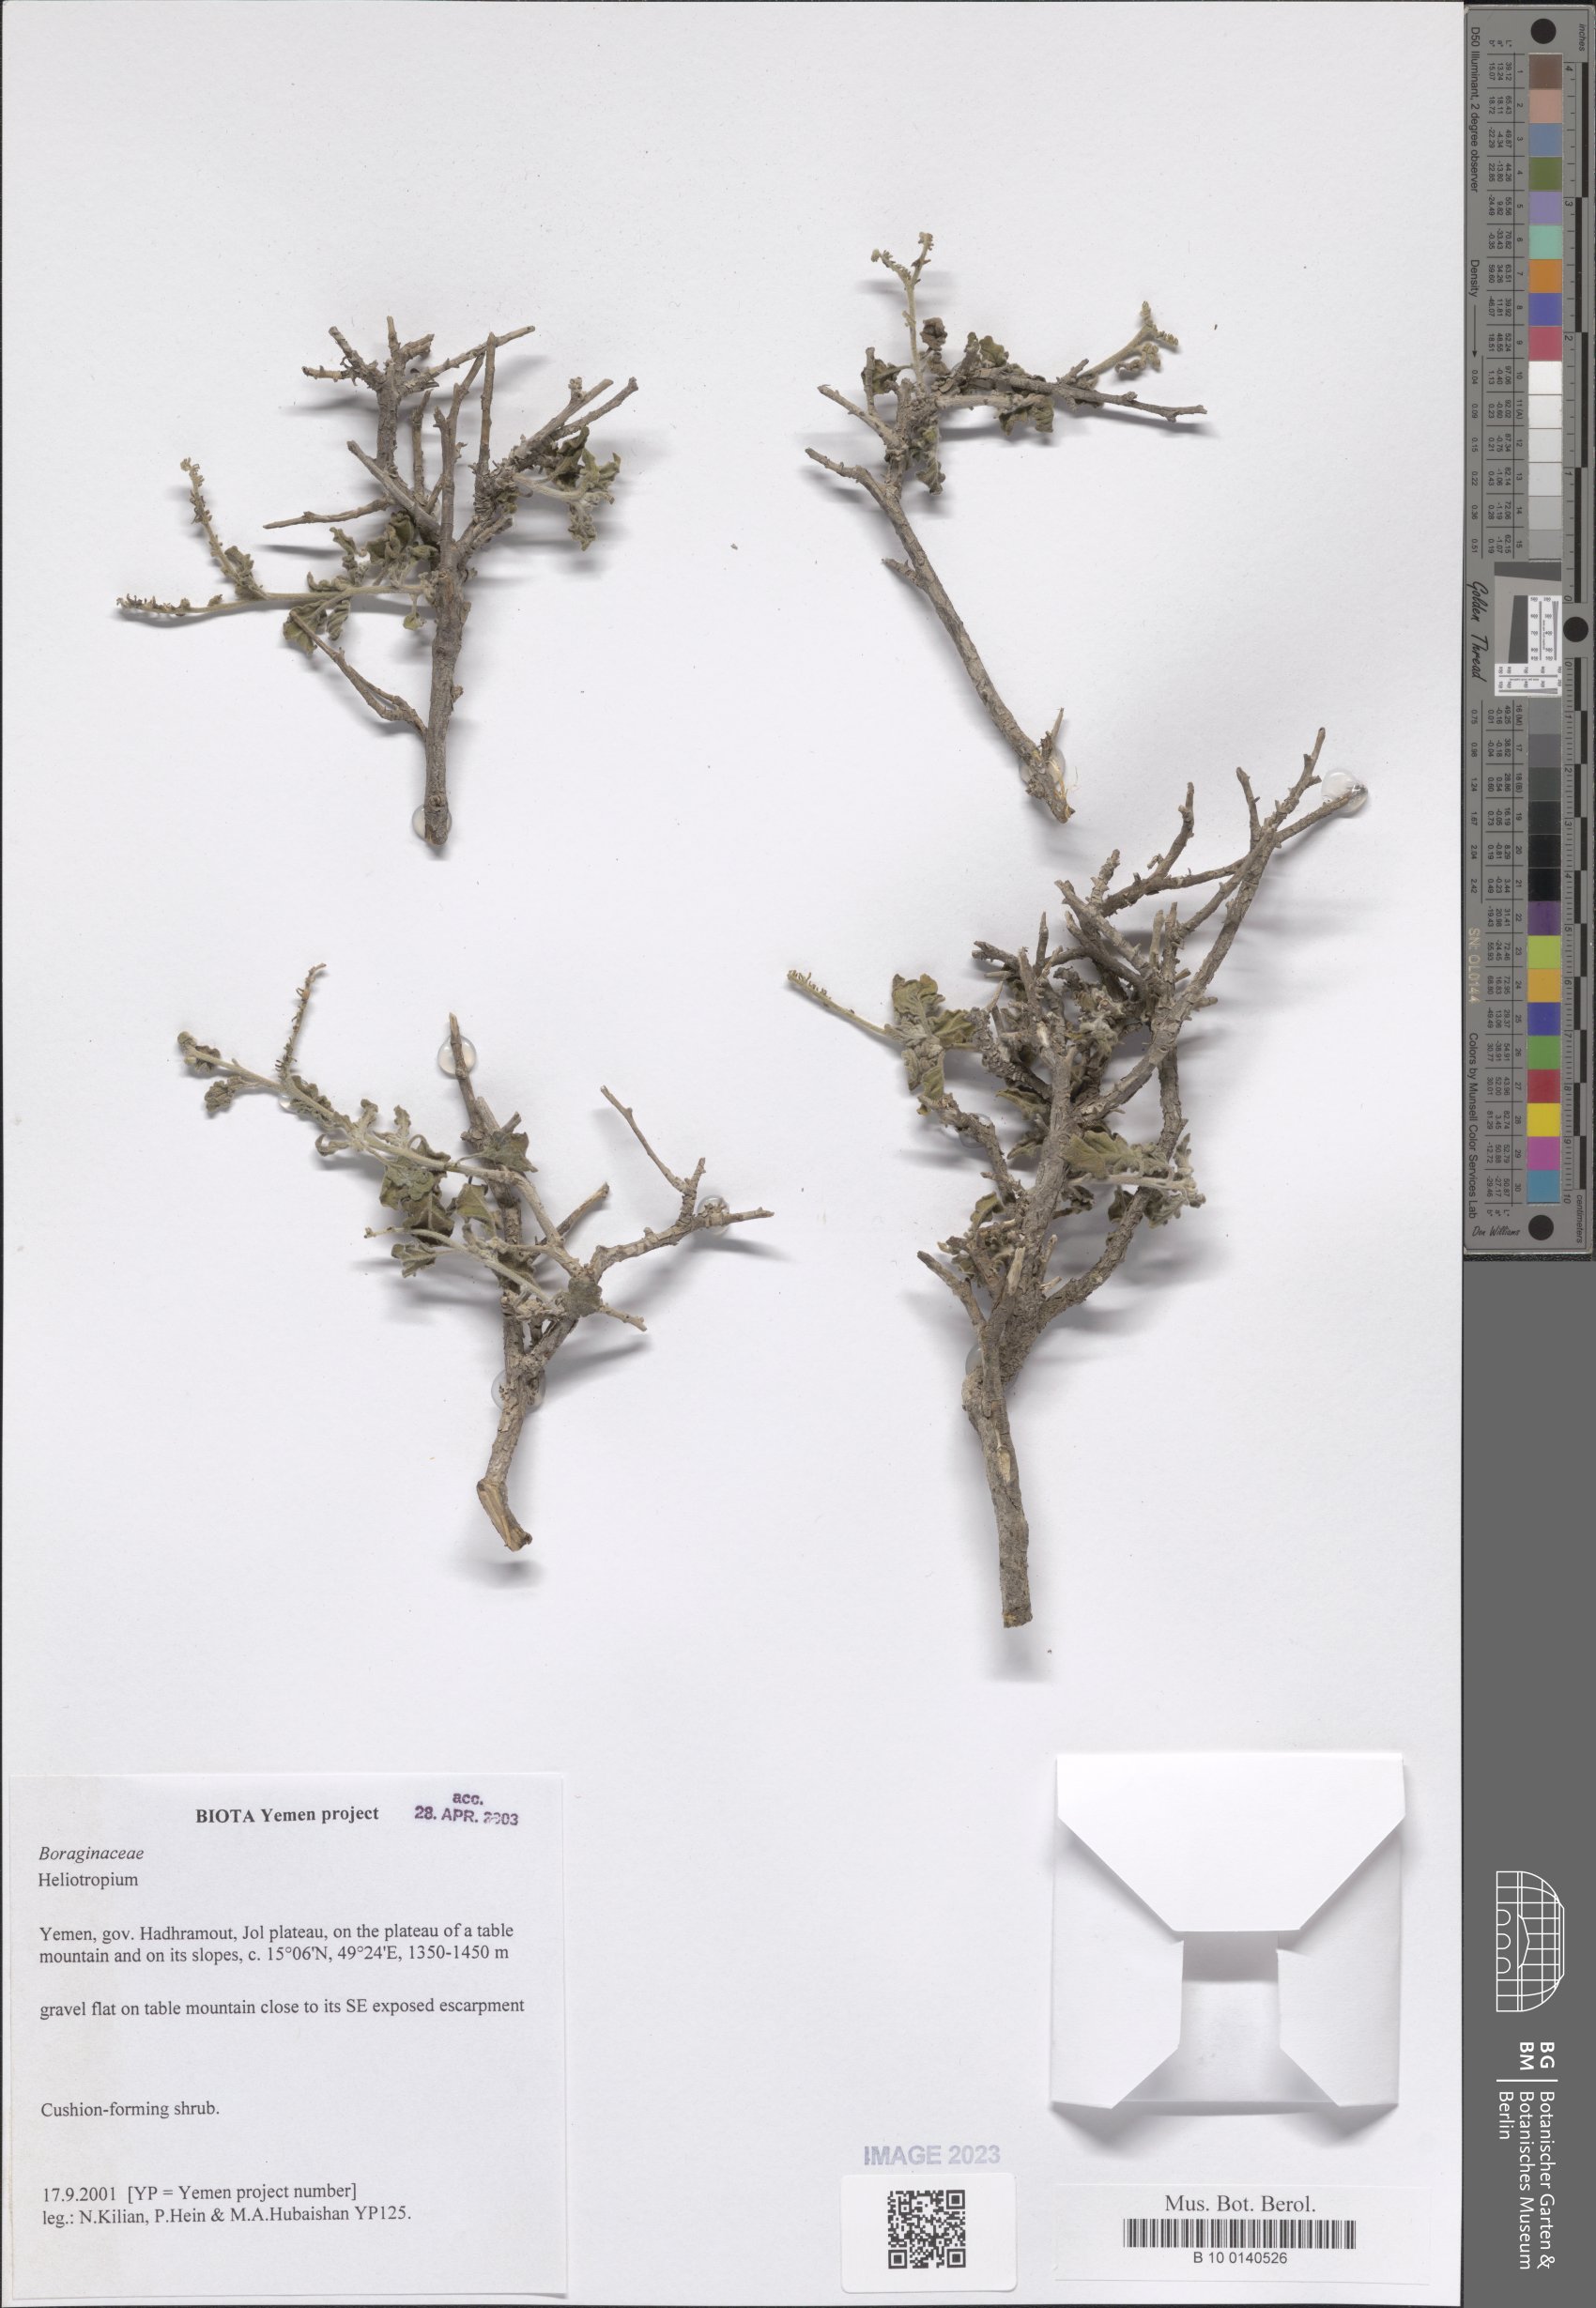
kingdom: Plantae
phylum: Tracheophyta
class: Magnoliopsida
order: Boraginales
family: Heliotropiaceae
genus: Heliotropium
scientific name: Heliotropium
